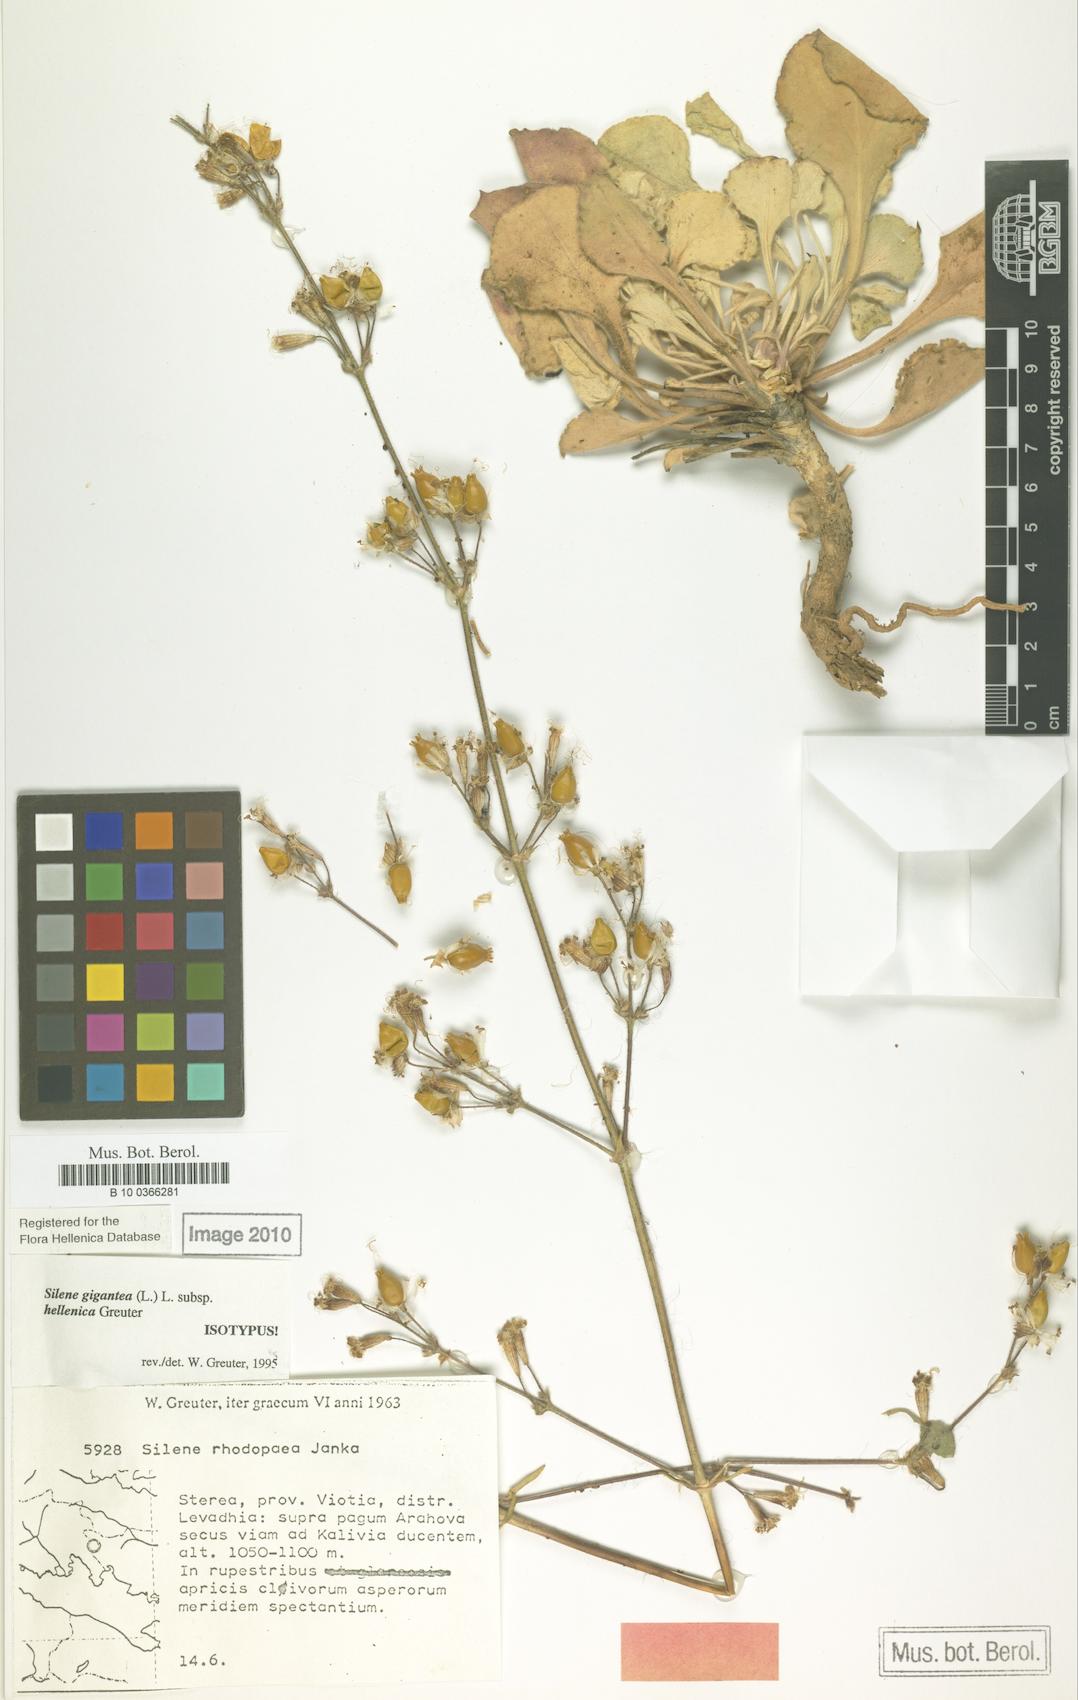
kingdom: Plantae
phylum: Tracheophyta
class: Magnoliopsida
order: Caryophyllales
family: Caryophyllaceae
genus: Silene
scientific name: Silene gigantea
